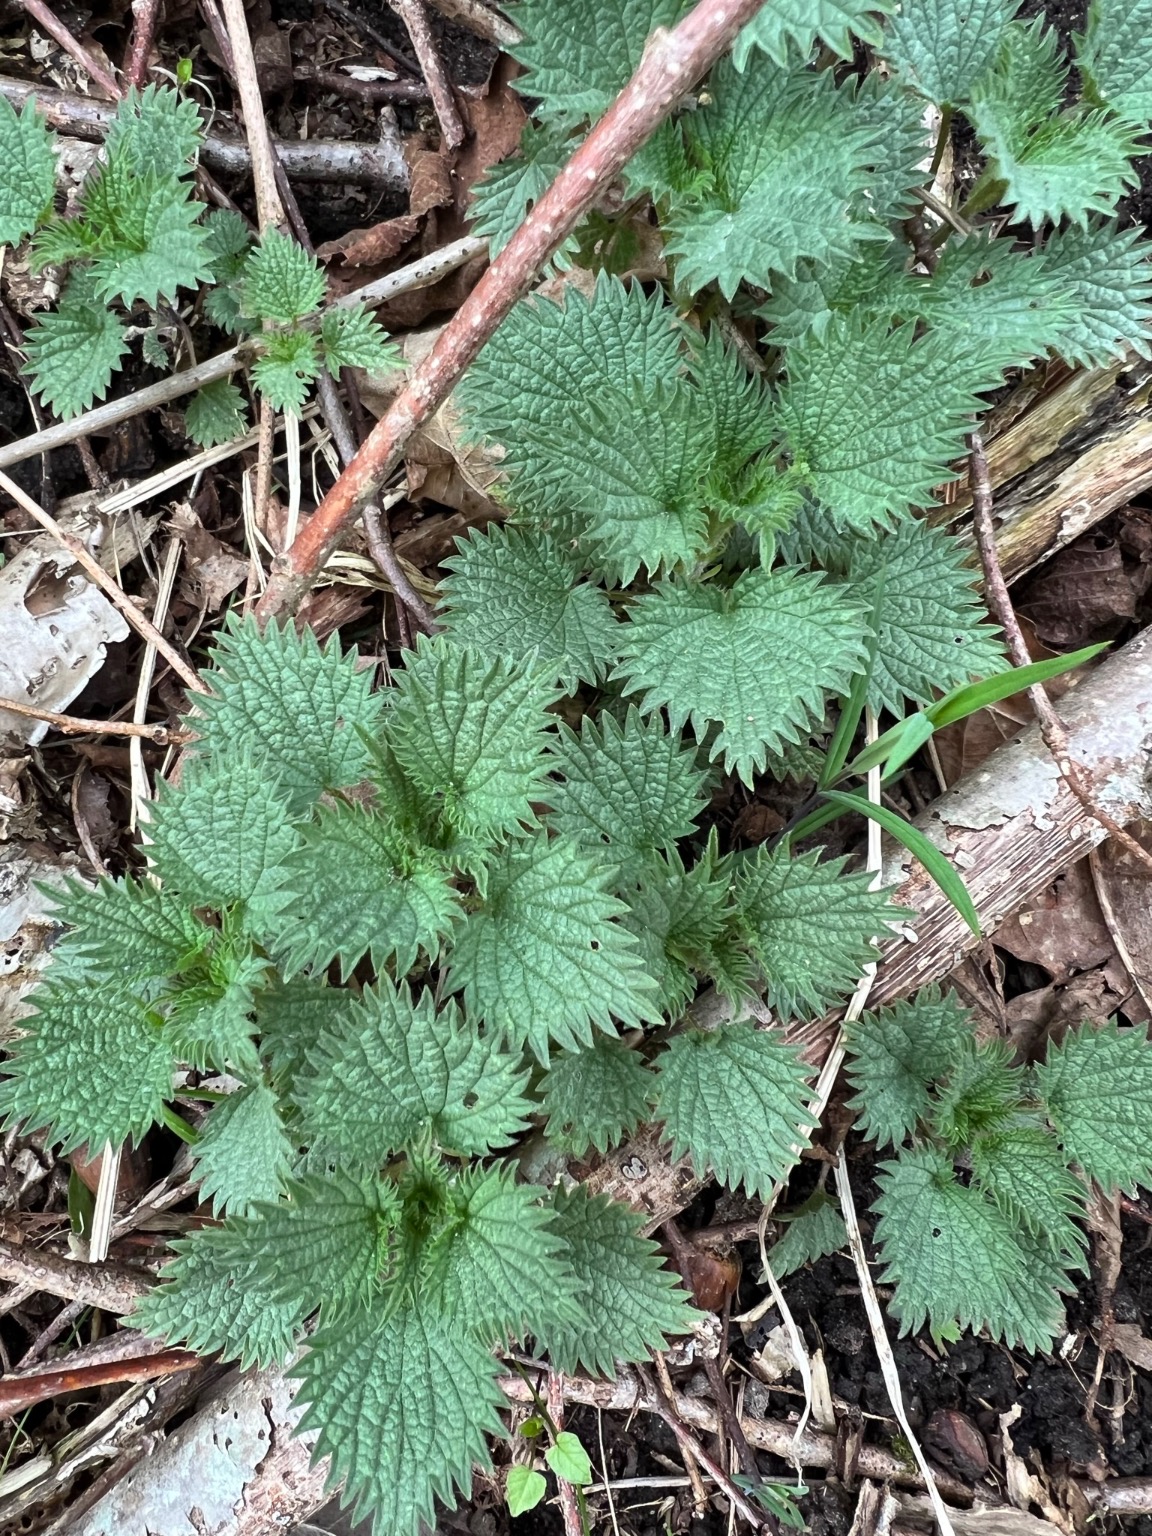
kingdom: Plantae
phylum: Tracheophyta
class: Magnoliopsida
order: Rosales
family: Urticaceae
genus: Urtica
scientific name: Urtica dioica
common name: Stor nælde
